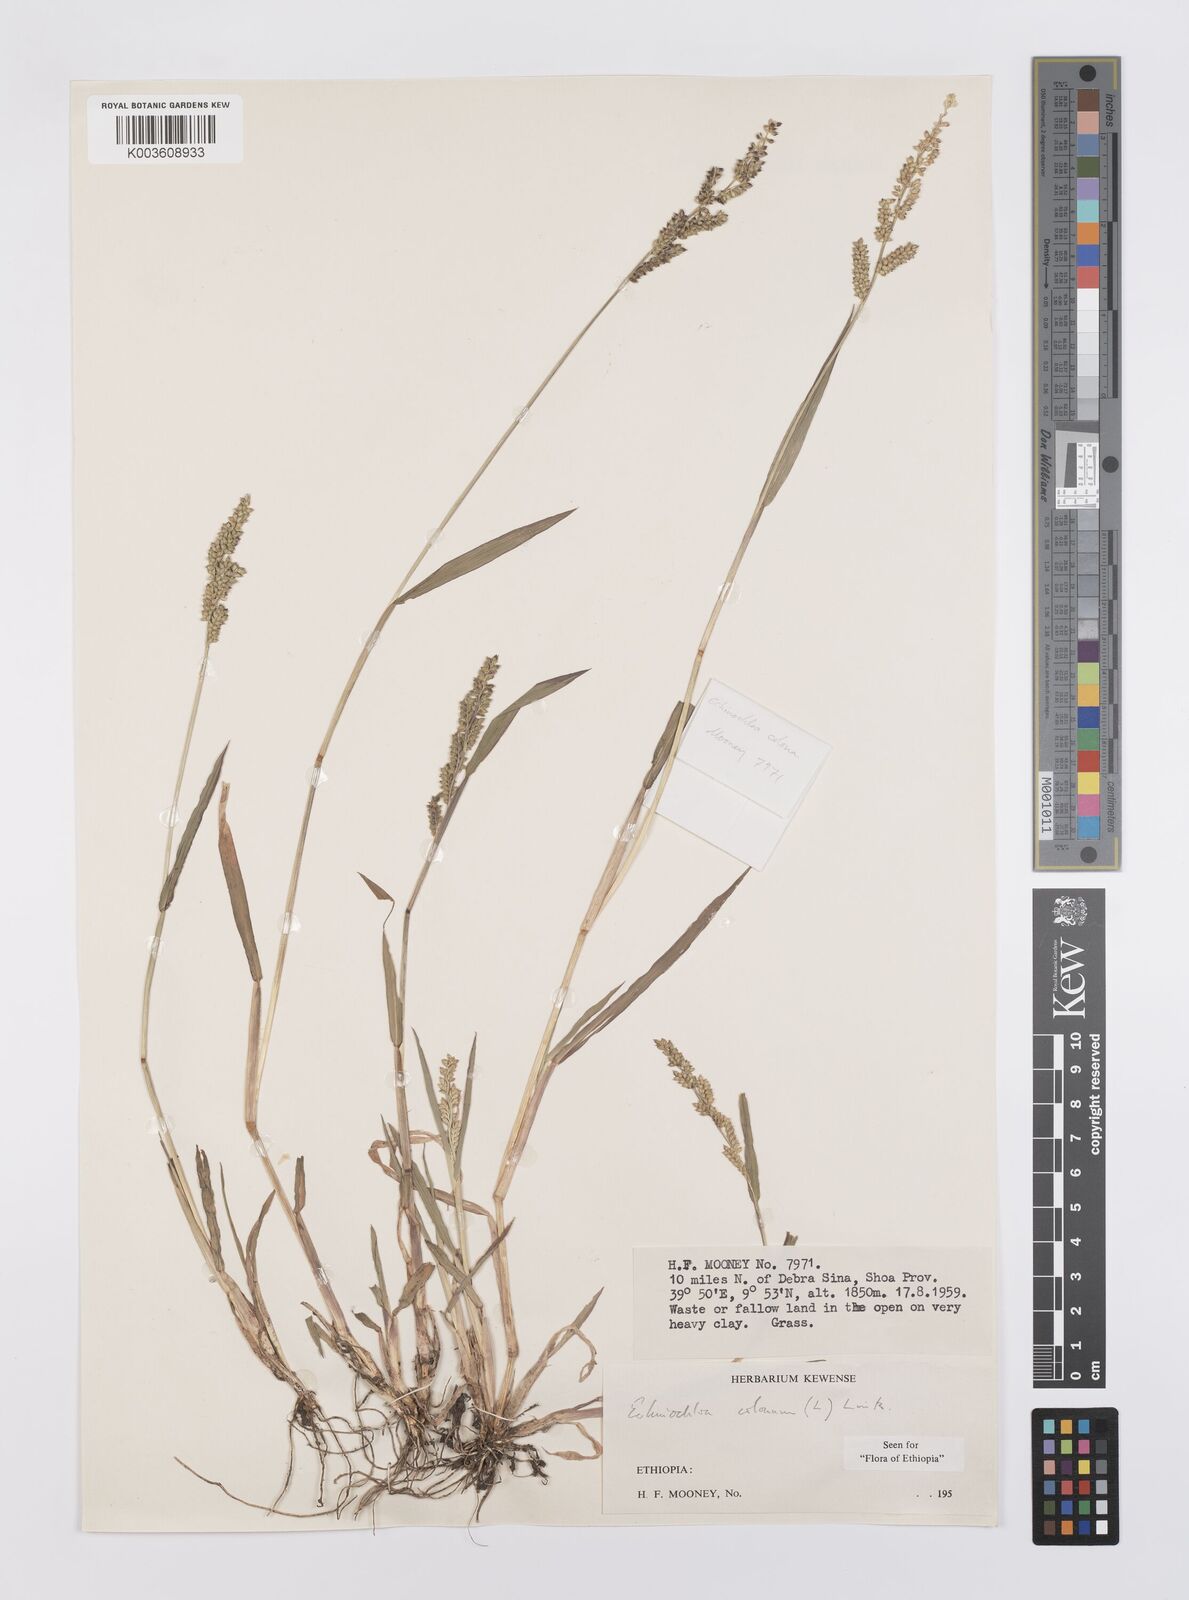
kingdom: Plantae
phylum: Tracheophyta
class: Liliopsida
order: Poales
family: Poaceae
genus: Echinochloa
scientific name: Echinochloa colonum
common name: Jungle rice
